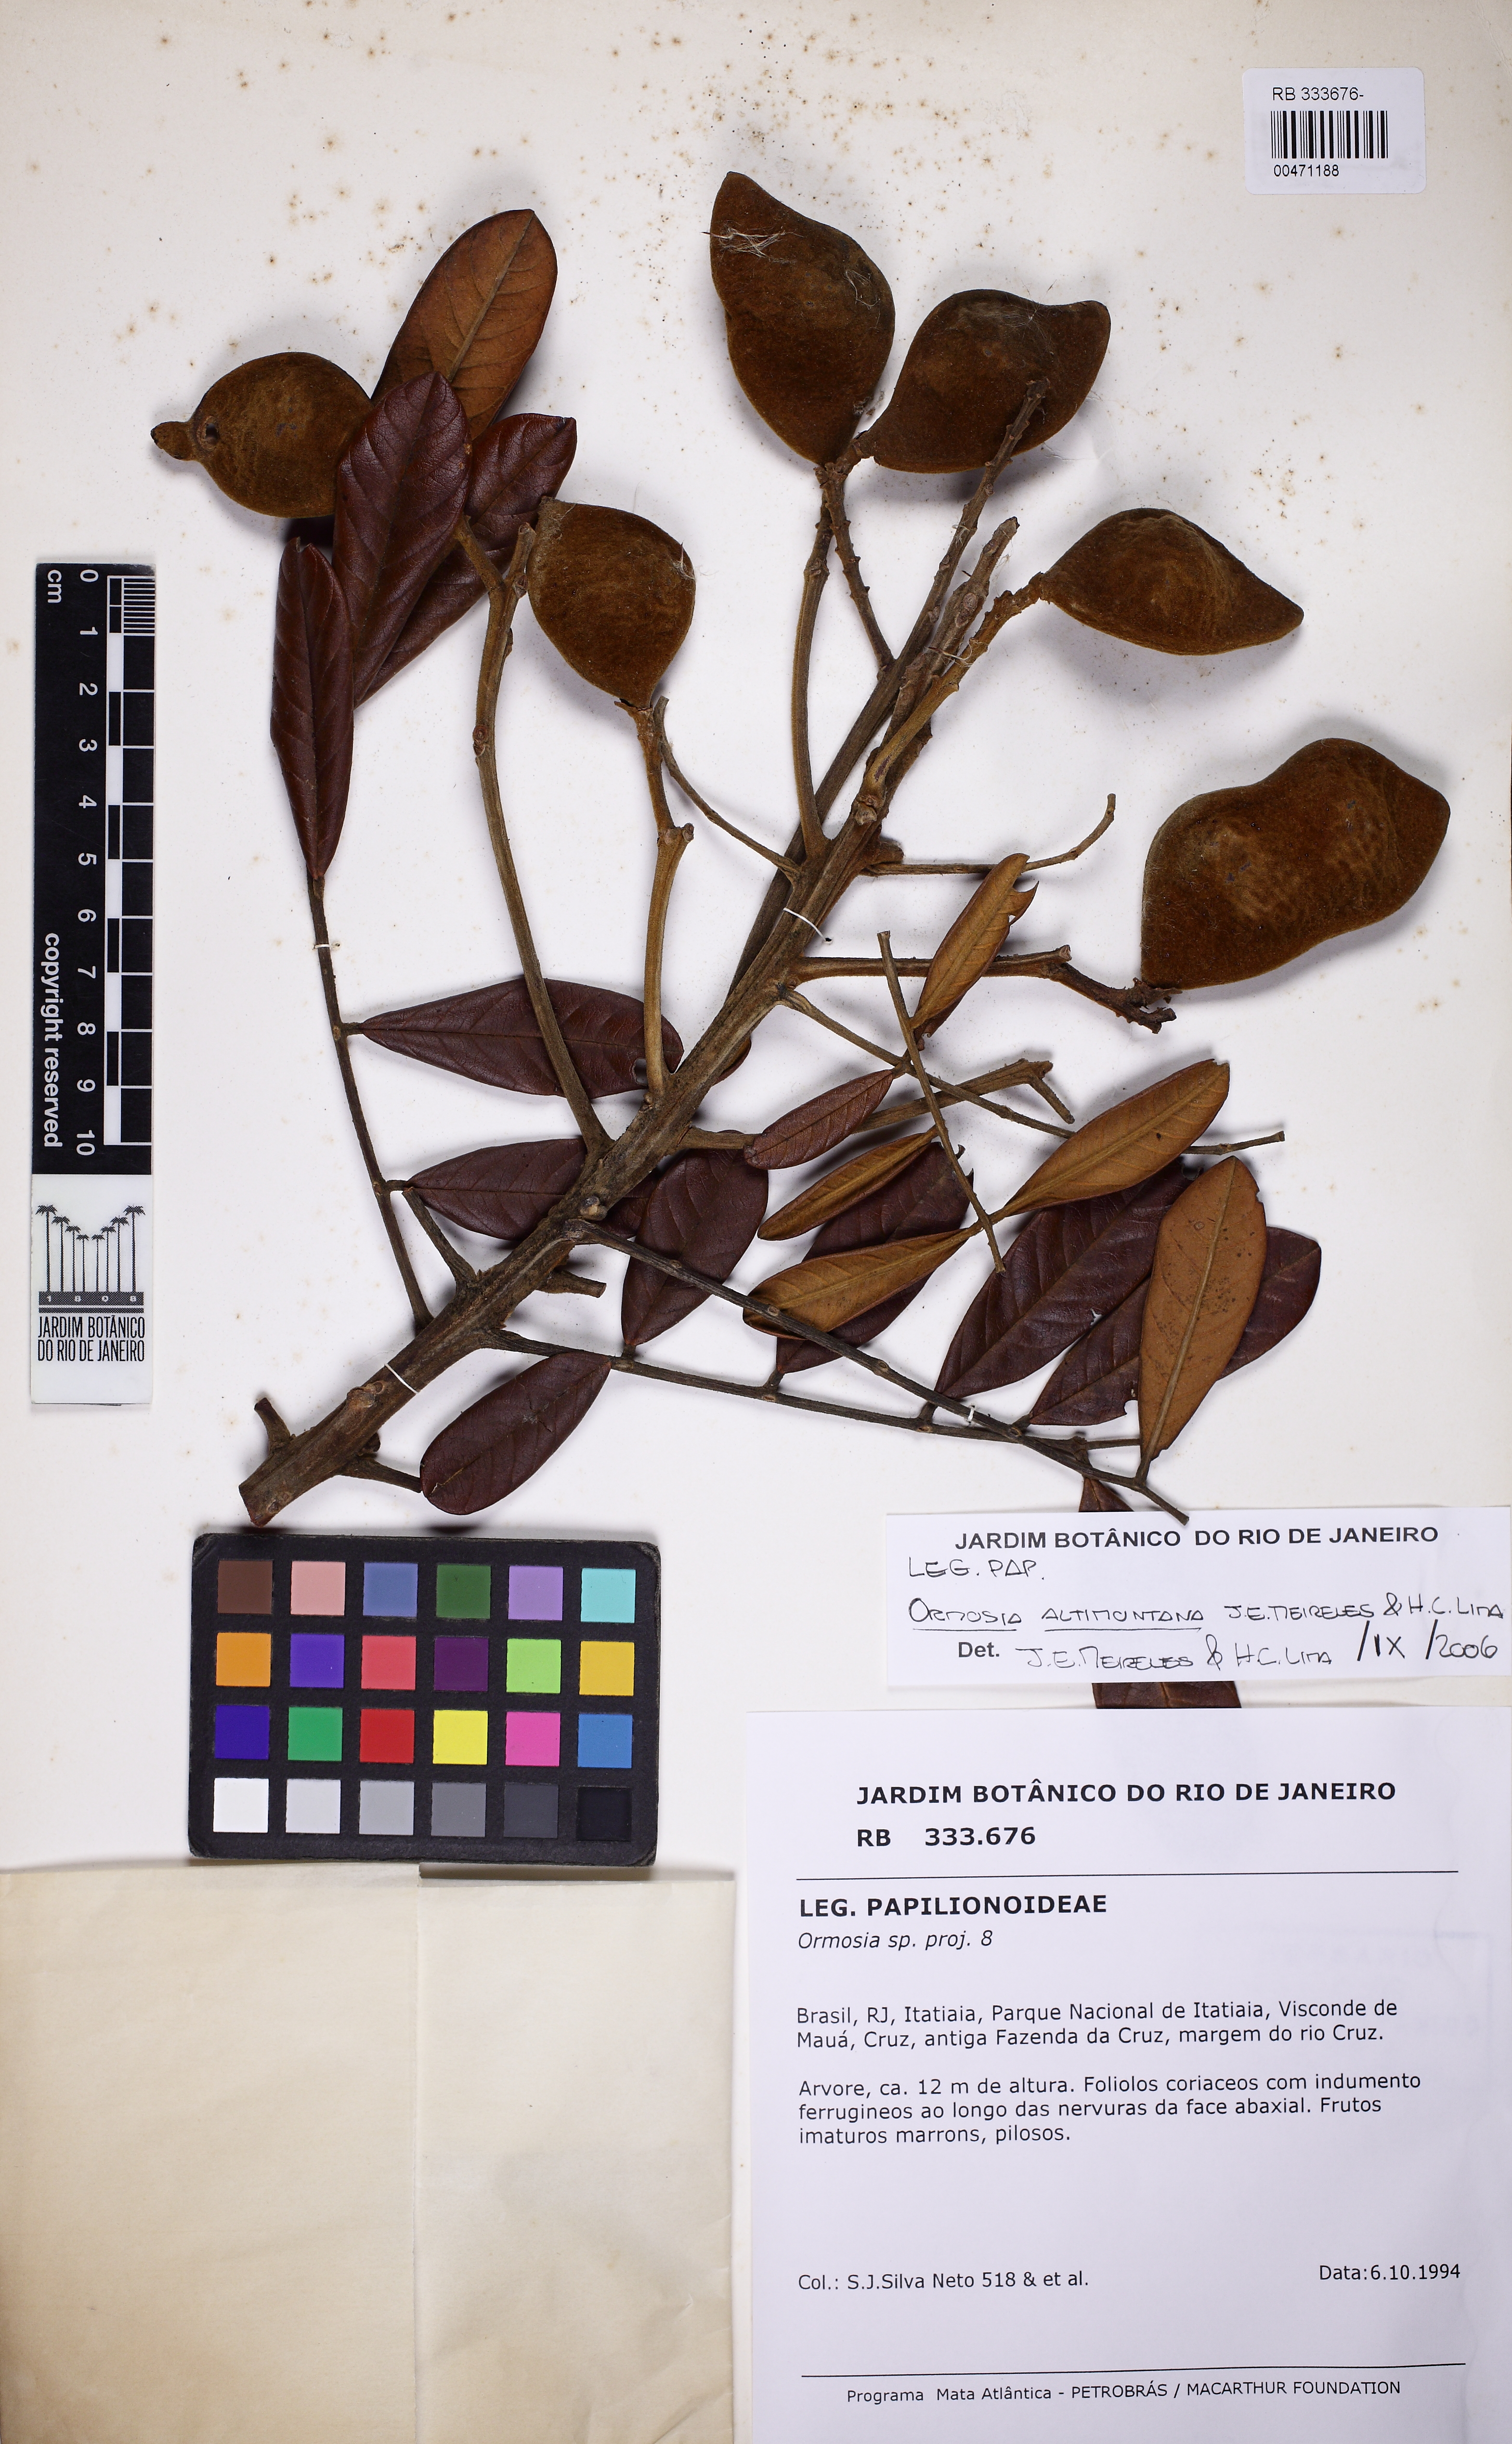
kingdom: Plantae
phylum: Tracheophyta
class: Magnoliopsida
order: Fabales
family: Fabaceae
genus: Ormosia
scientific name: Ormosia altimontana
